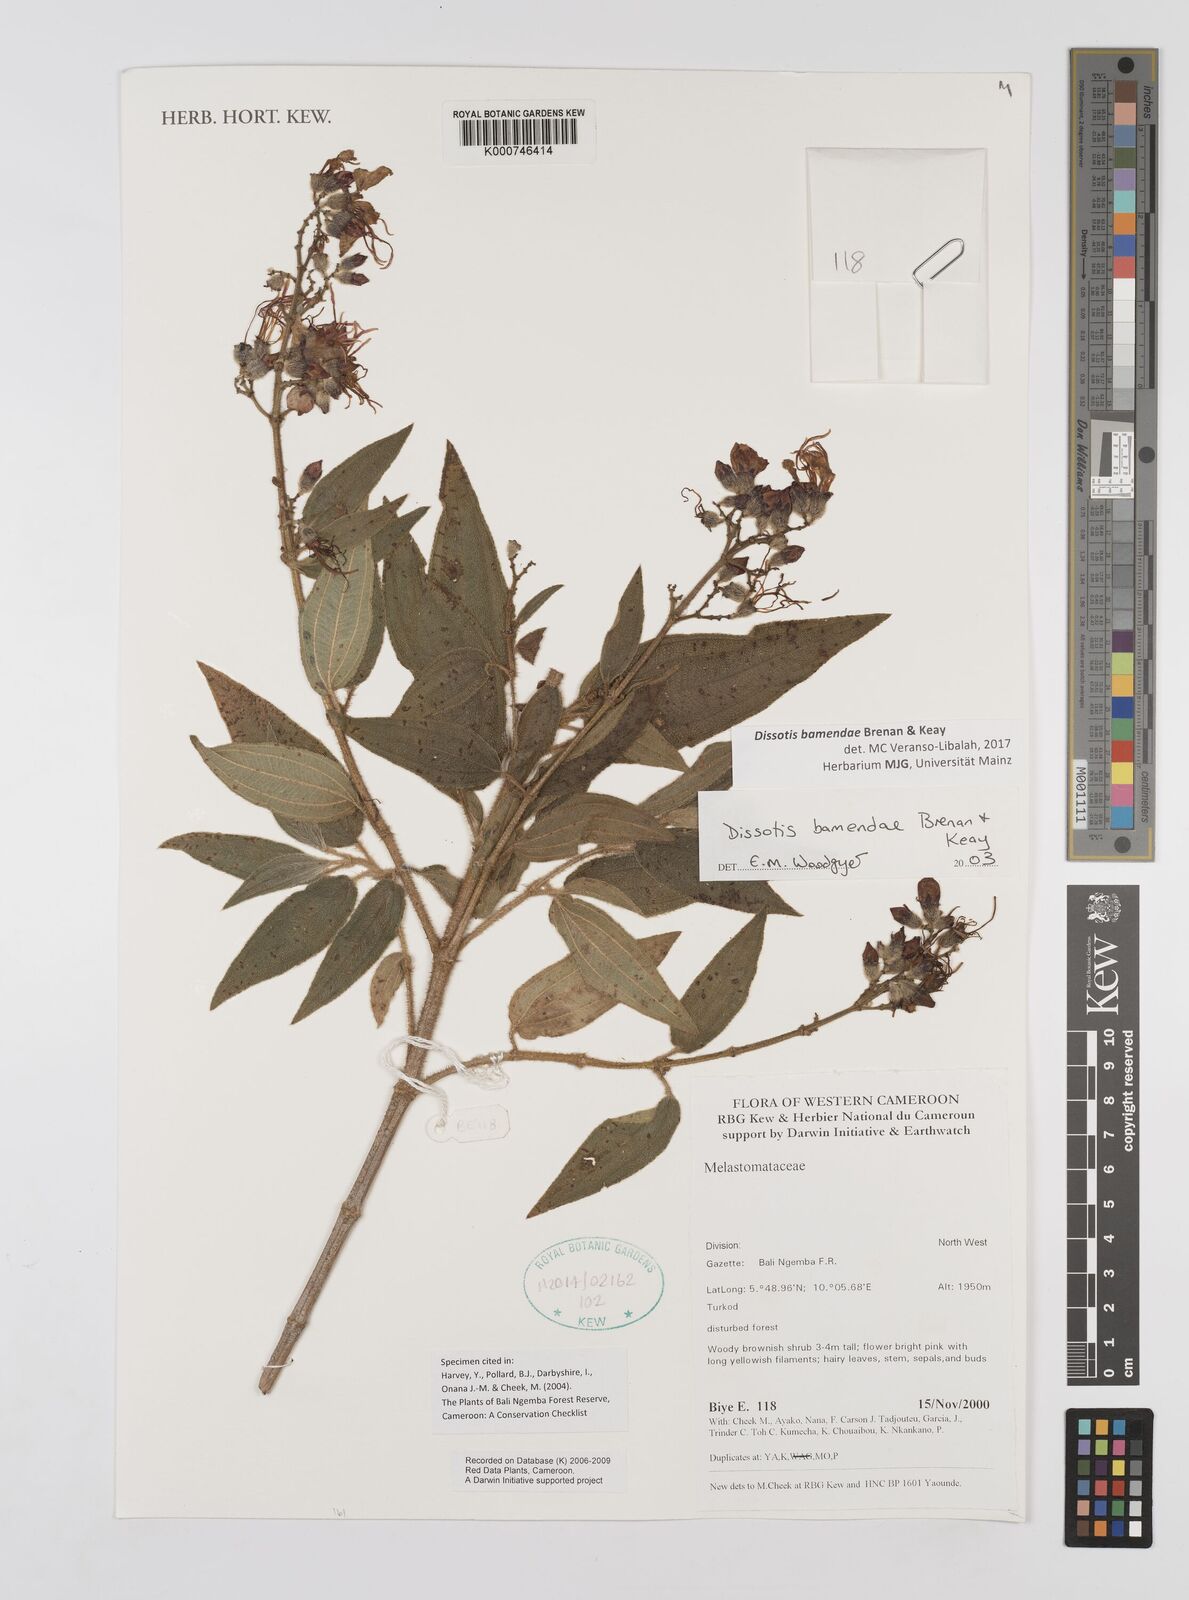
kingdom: Plantae
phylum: Tracheophyta
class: Magnoliopsida
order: Myrtales
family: Melastomataceae
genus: Rosettea
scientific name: Rosettea riparia
